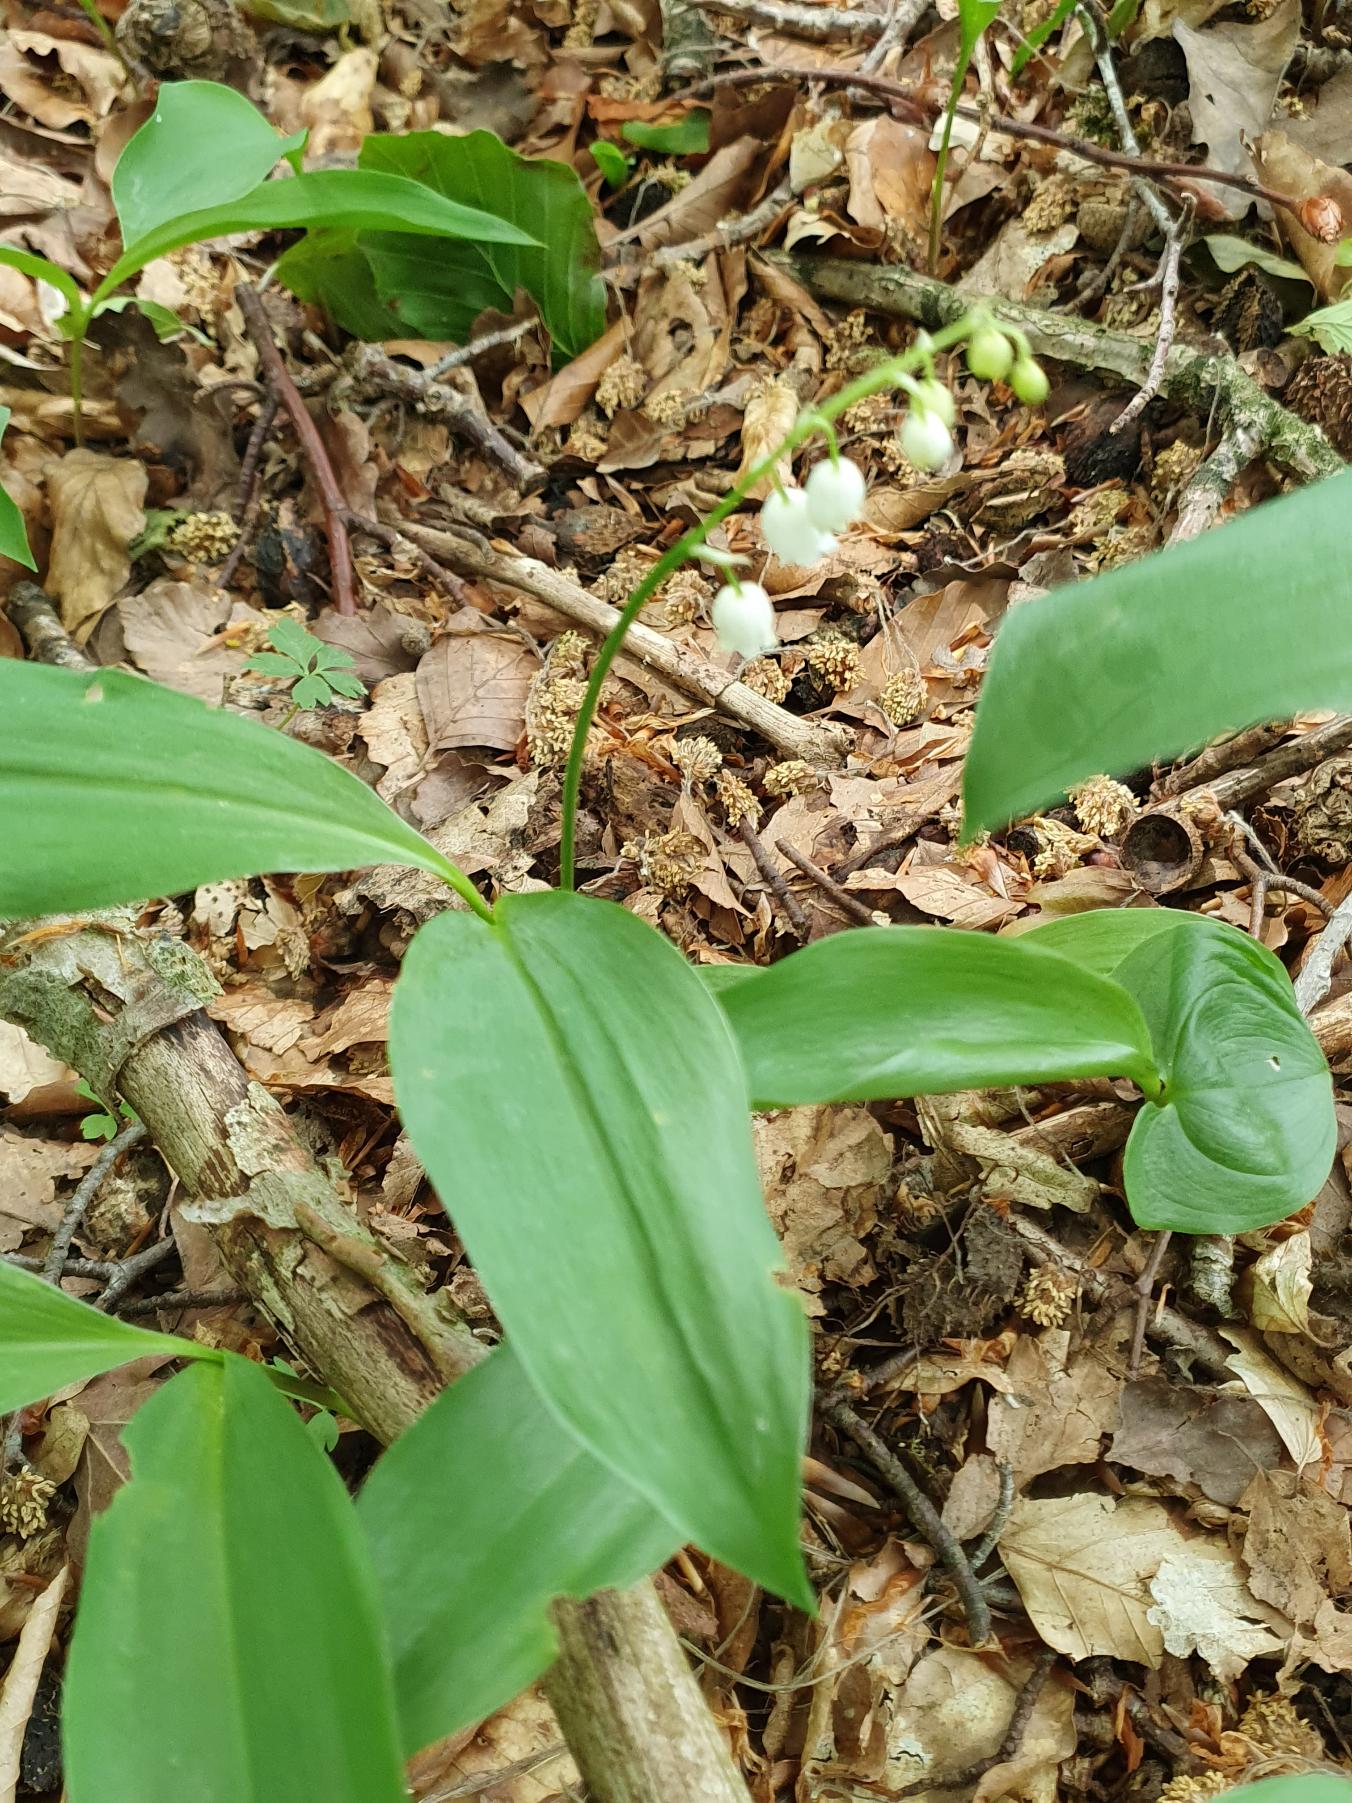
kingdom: Plantae
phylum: Tracheophyta
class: Liliopsida
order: Asparagales
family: Asparagaceae
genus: Convallaria
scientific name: Convallaria majalis
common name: Liljekonval
